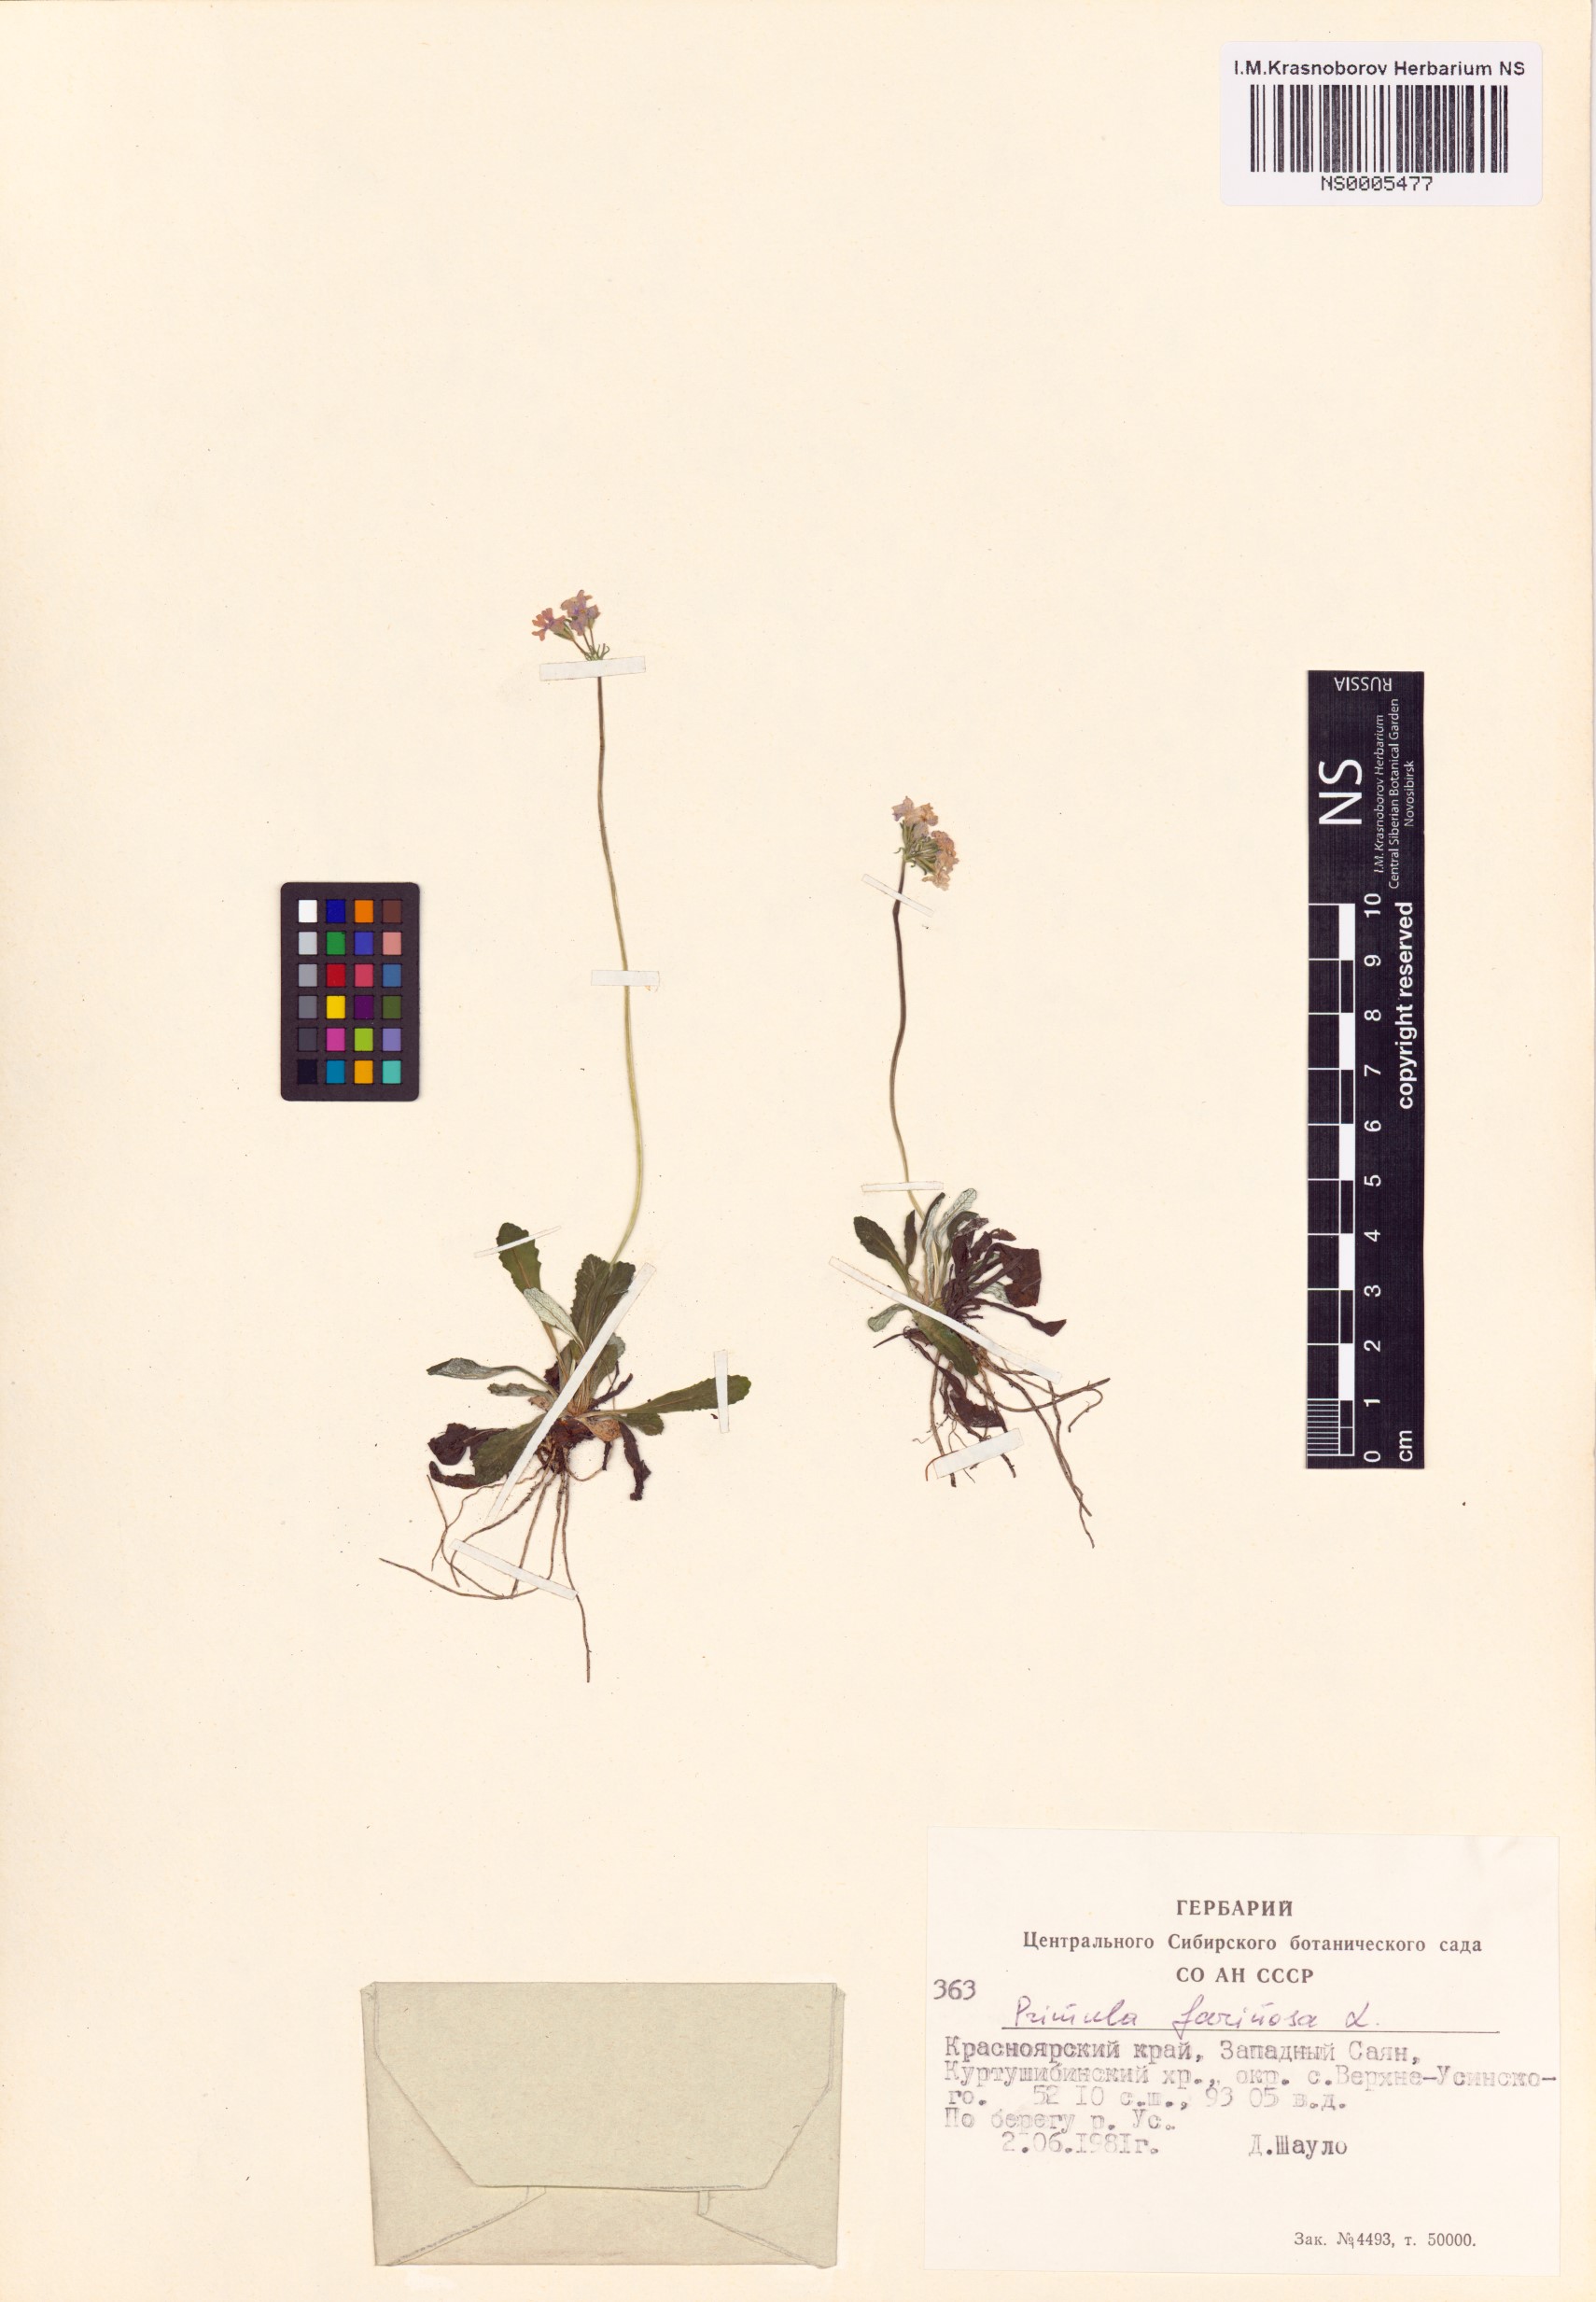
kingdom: Plantae
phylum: Tracheophyta
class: Magnoliopsida
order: Ericales
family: Primulaceae
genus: Primula
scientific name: Primula farinosa
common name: Bird's-eye primrose
